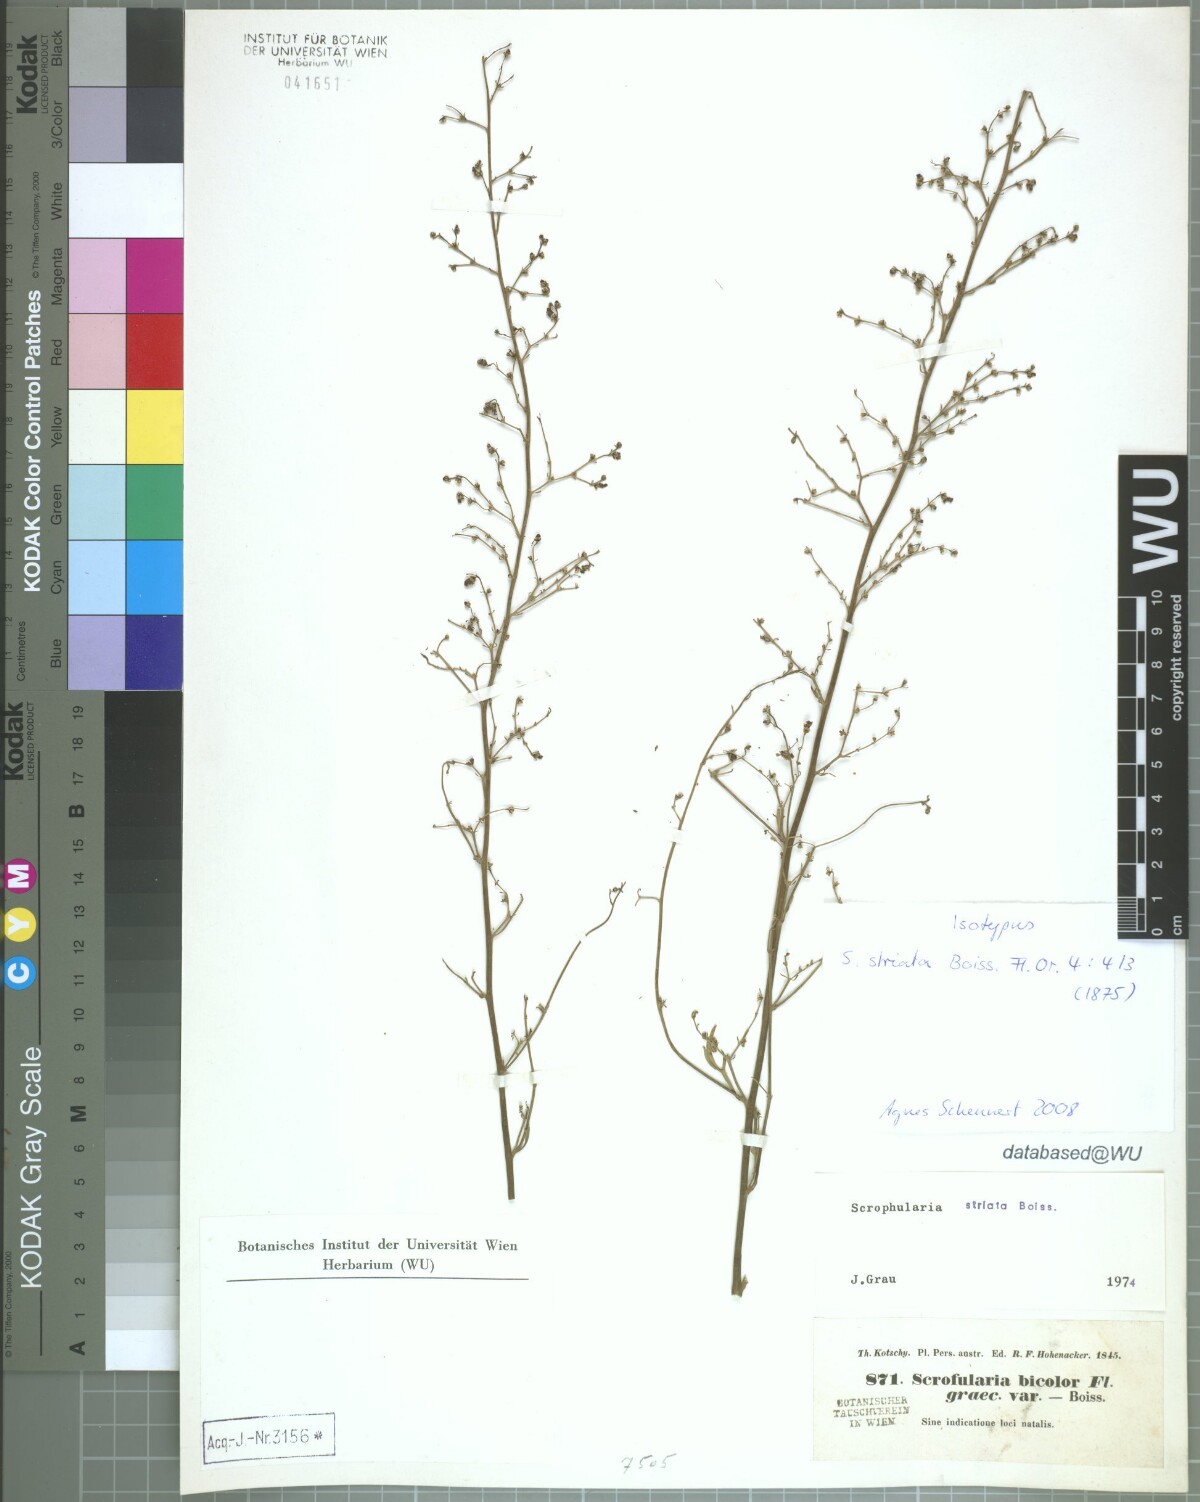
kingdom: Plantae
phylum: Tracheophyta
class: Magnoliopsida
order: Lamiales
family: Scrophulariaceae
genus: Scrophularia
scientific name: Scrophularia striata
